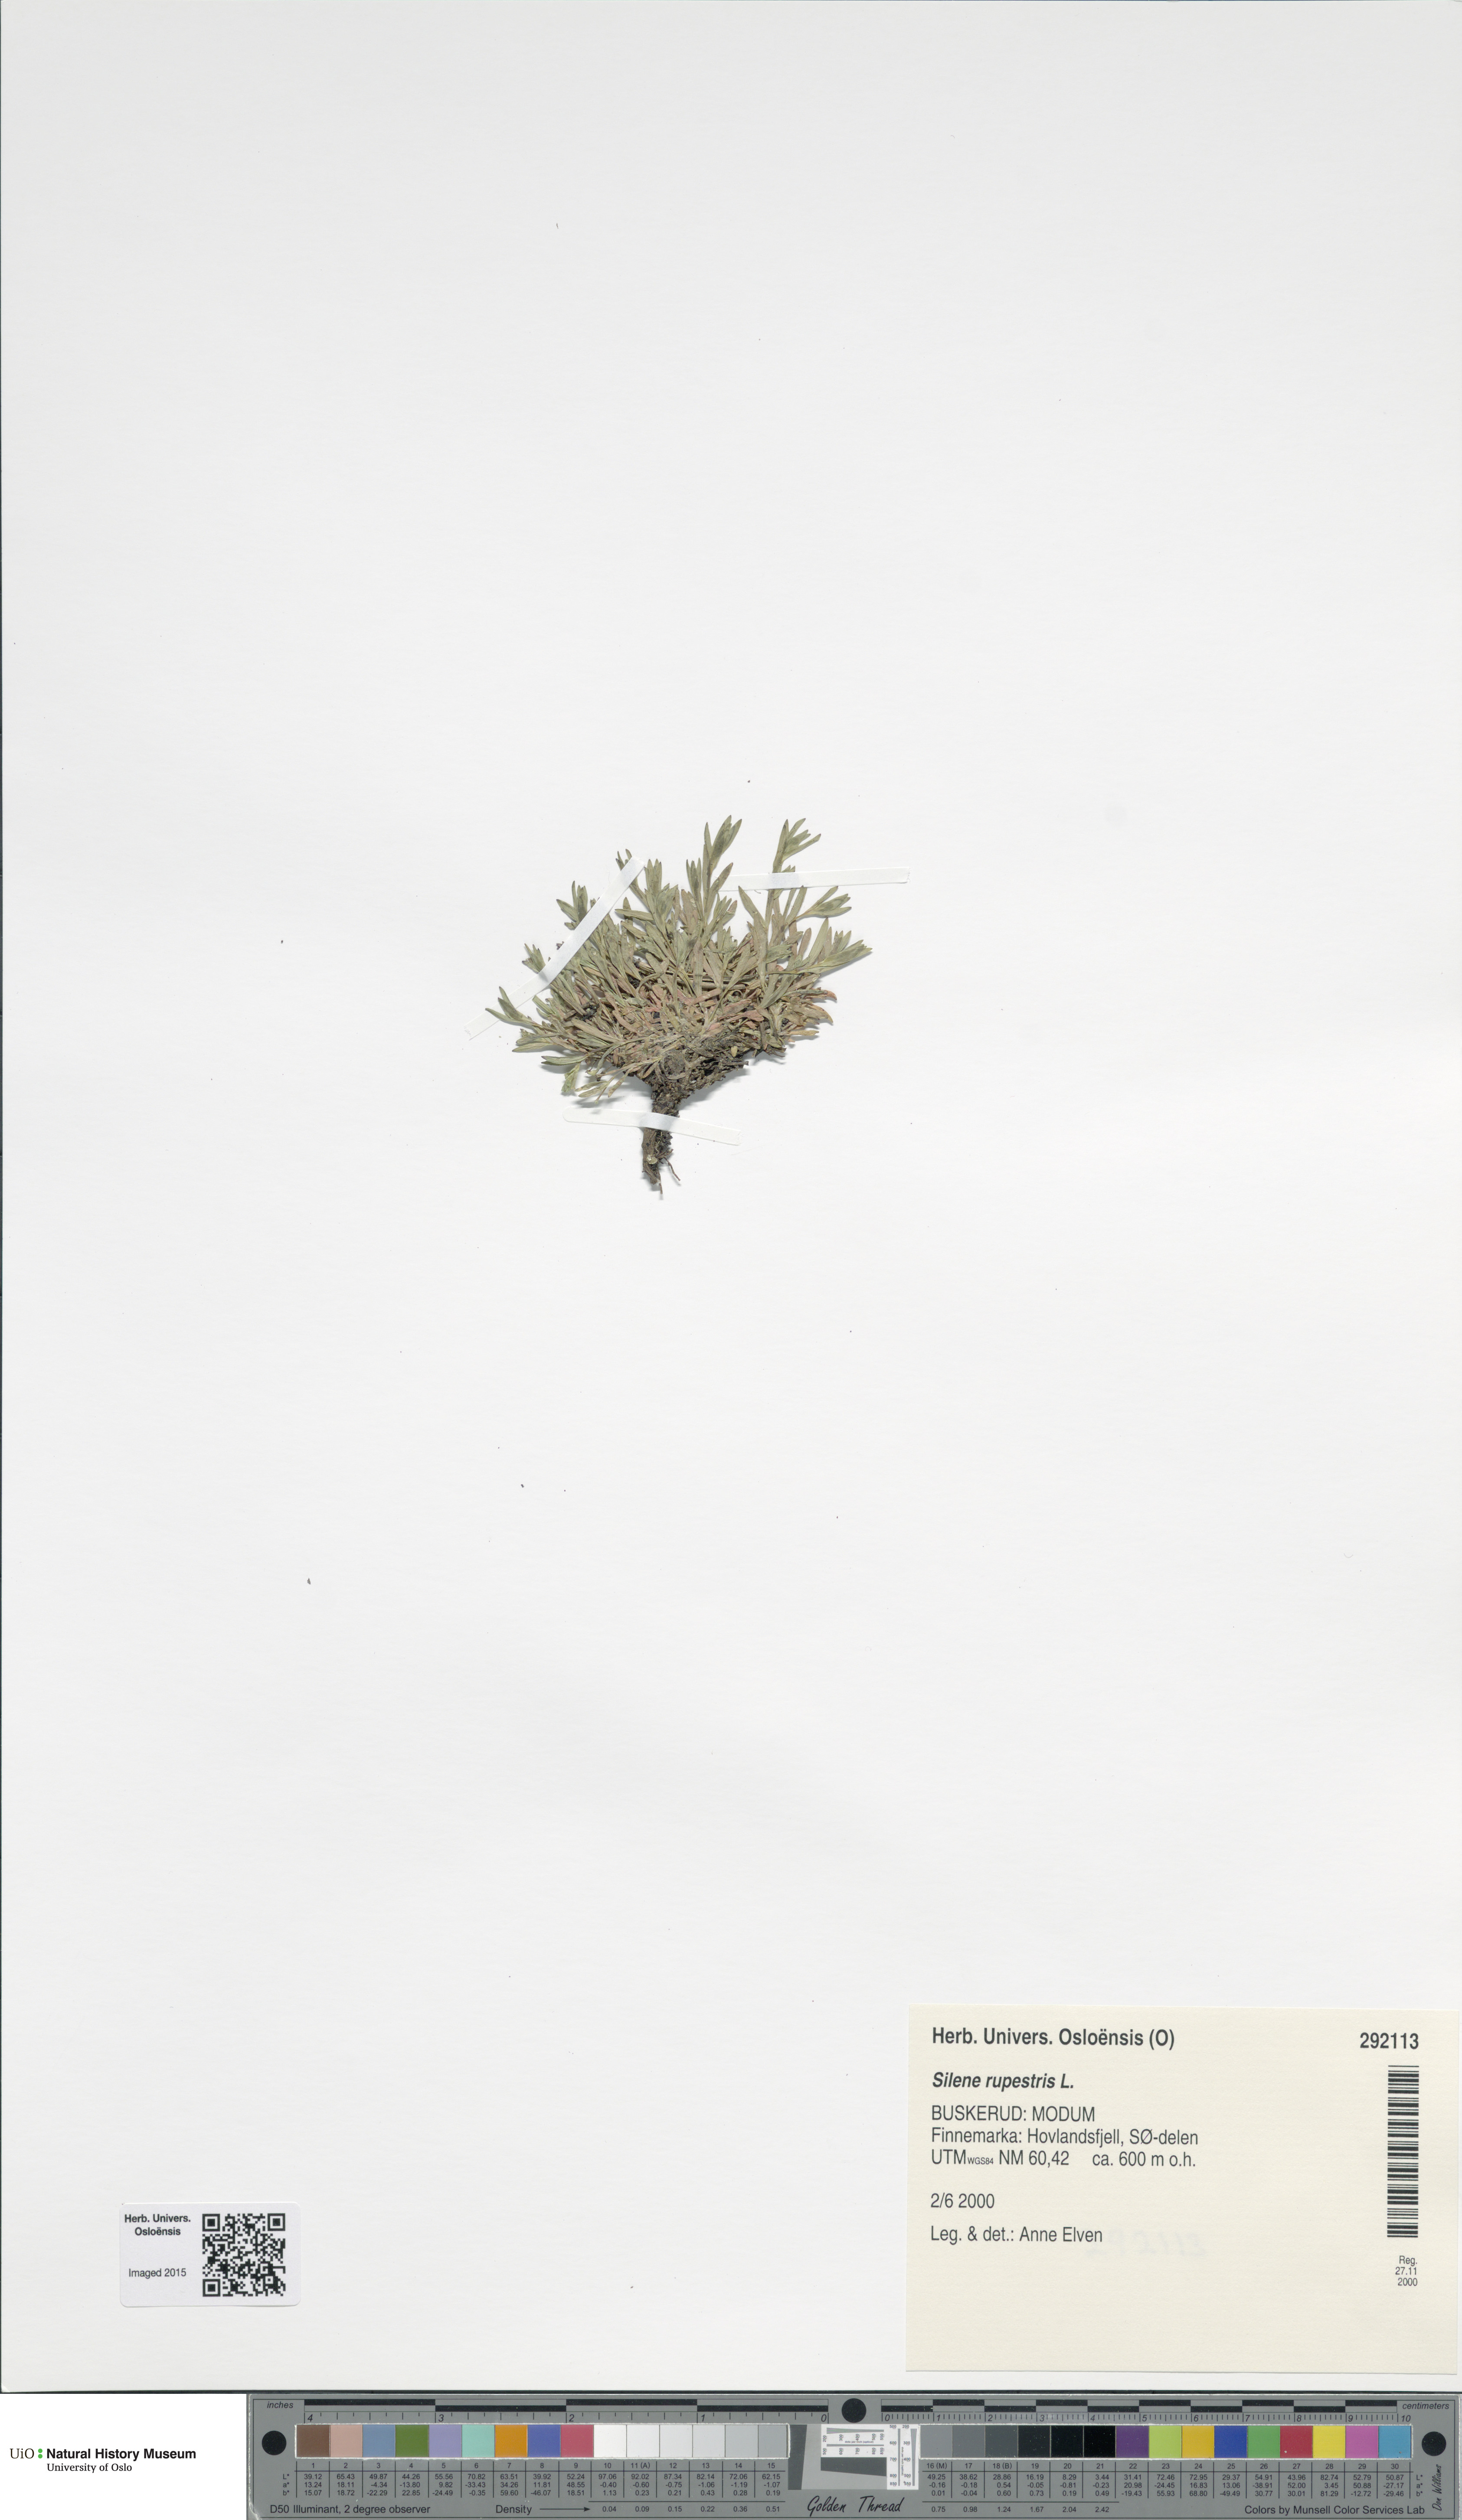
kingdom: Plantae
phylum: Tracheophyta
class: Magnoliopsida
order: Caryophyllales
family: Caryophyllaceae
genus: Atocion
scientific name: Atocion rupestre
